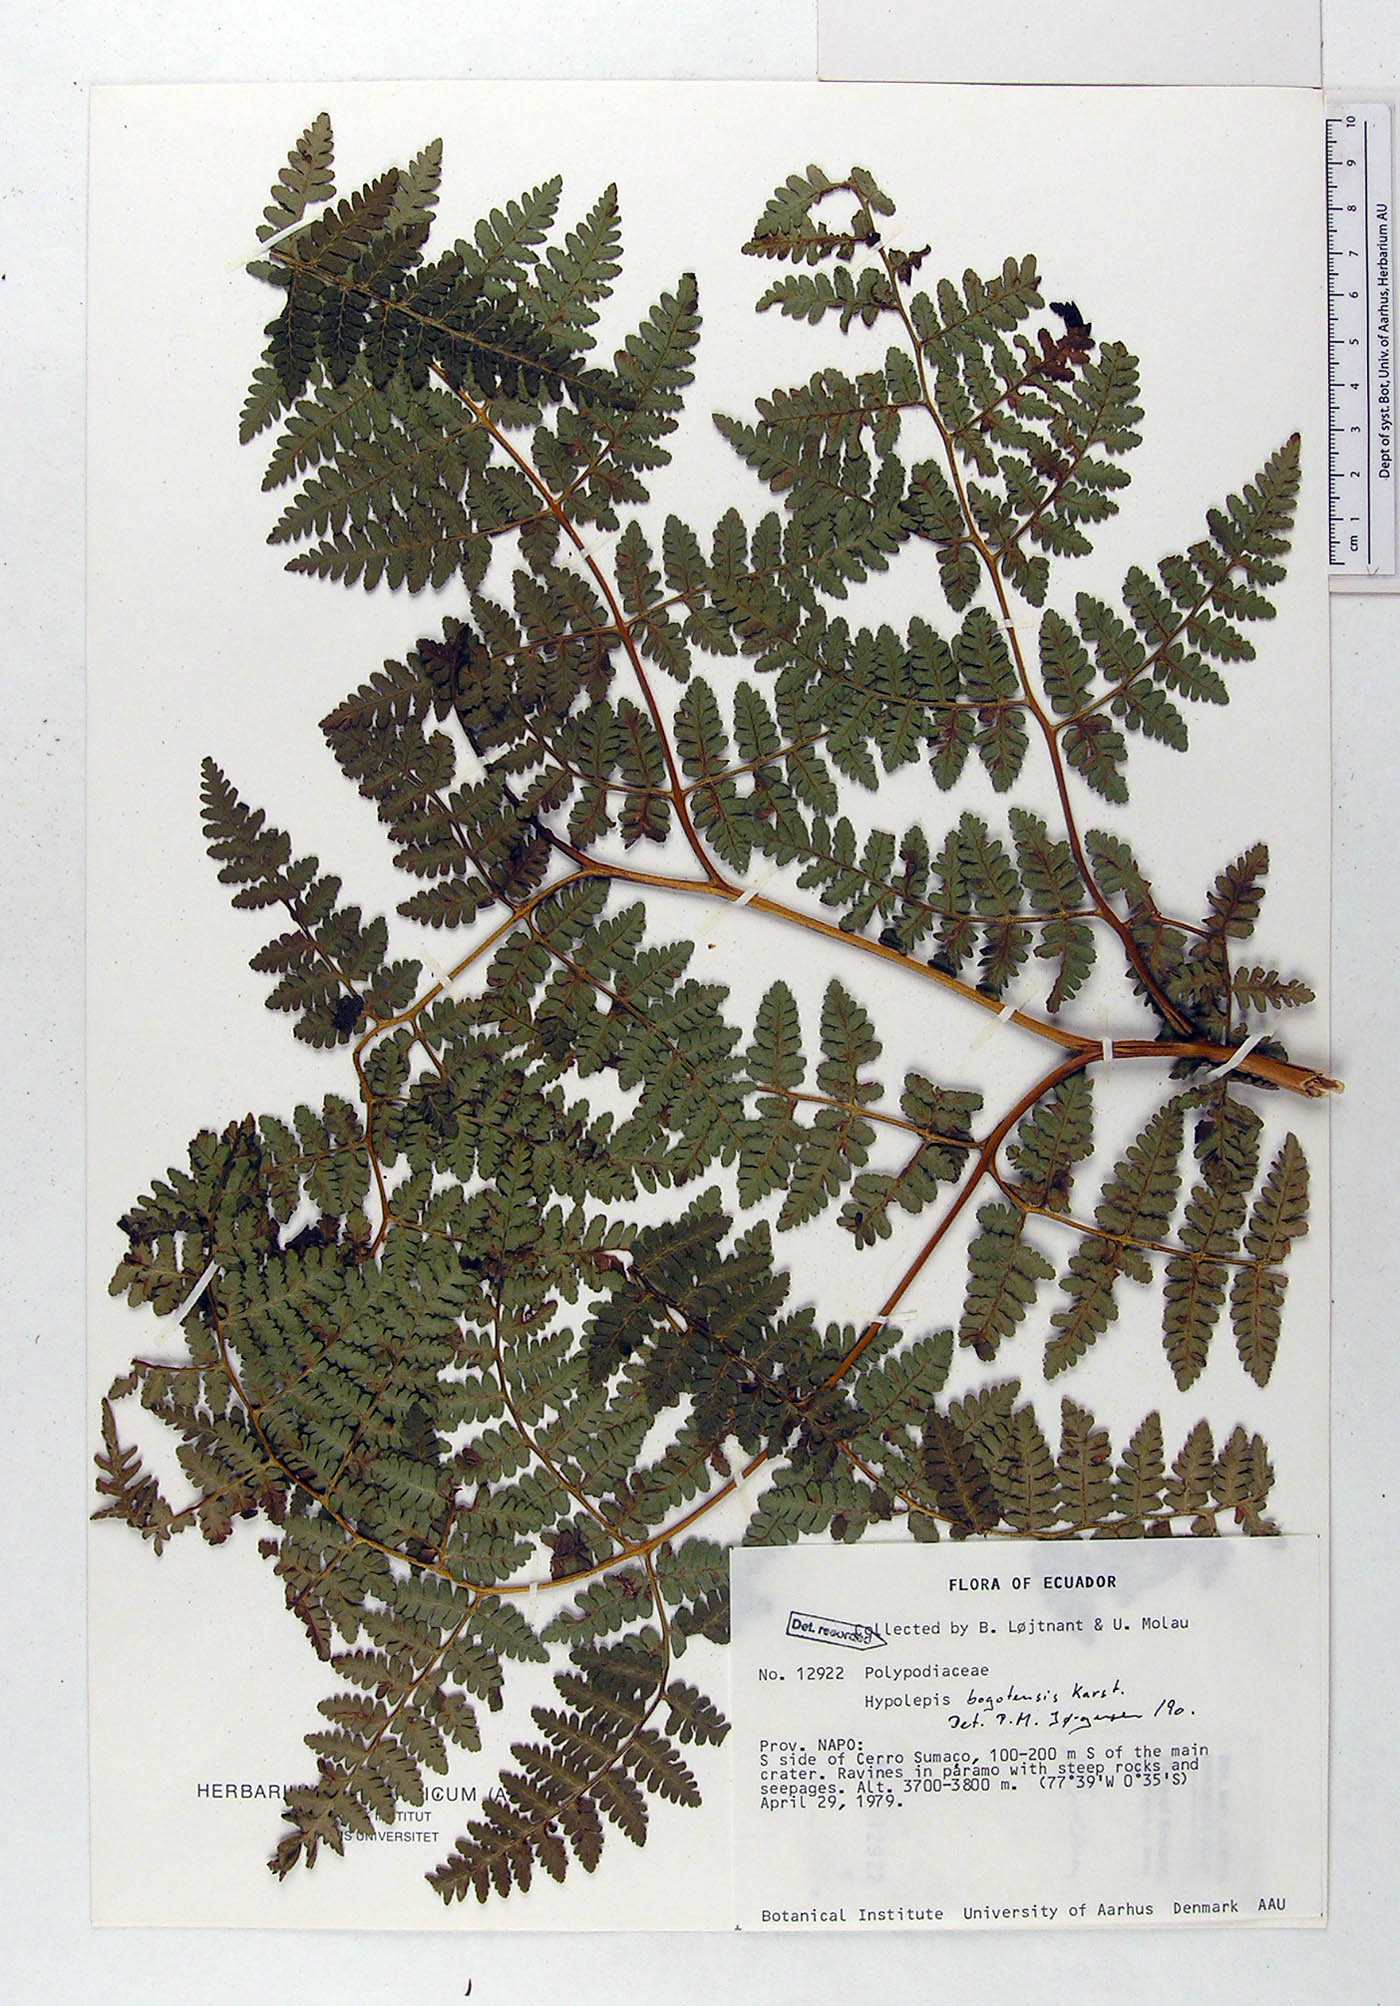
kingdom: Plantae
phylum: Tracheophyta
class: Polypodiopsida
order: Polypodiales
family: Dennstaedtiaceae
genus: Hypolepis
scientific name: Hypolepis bogotensis
